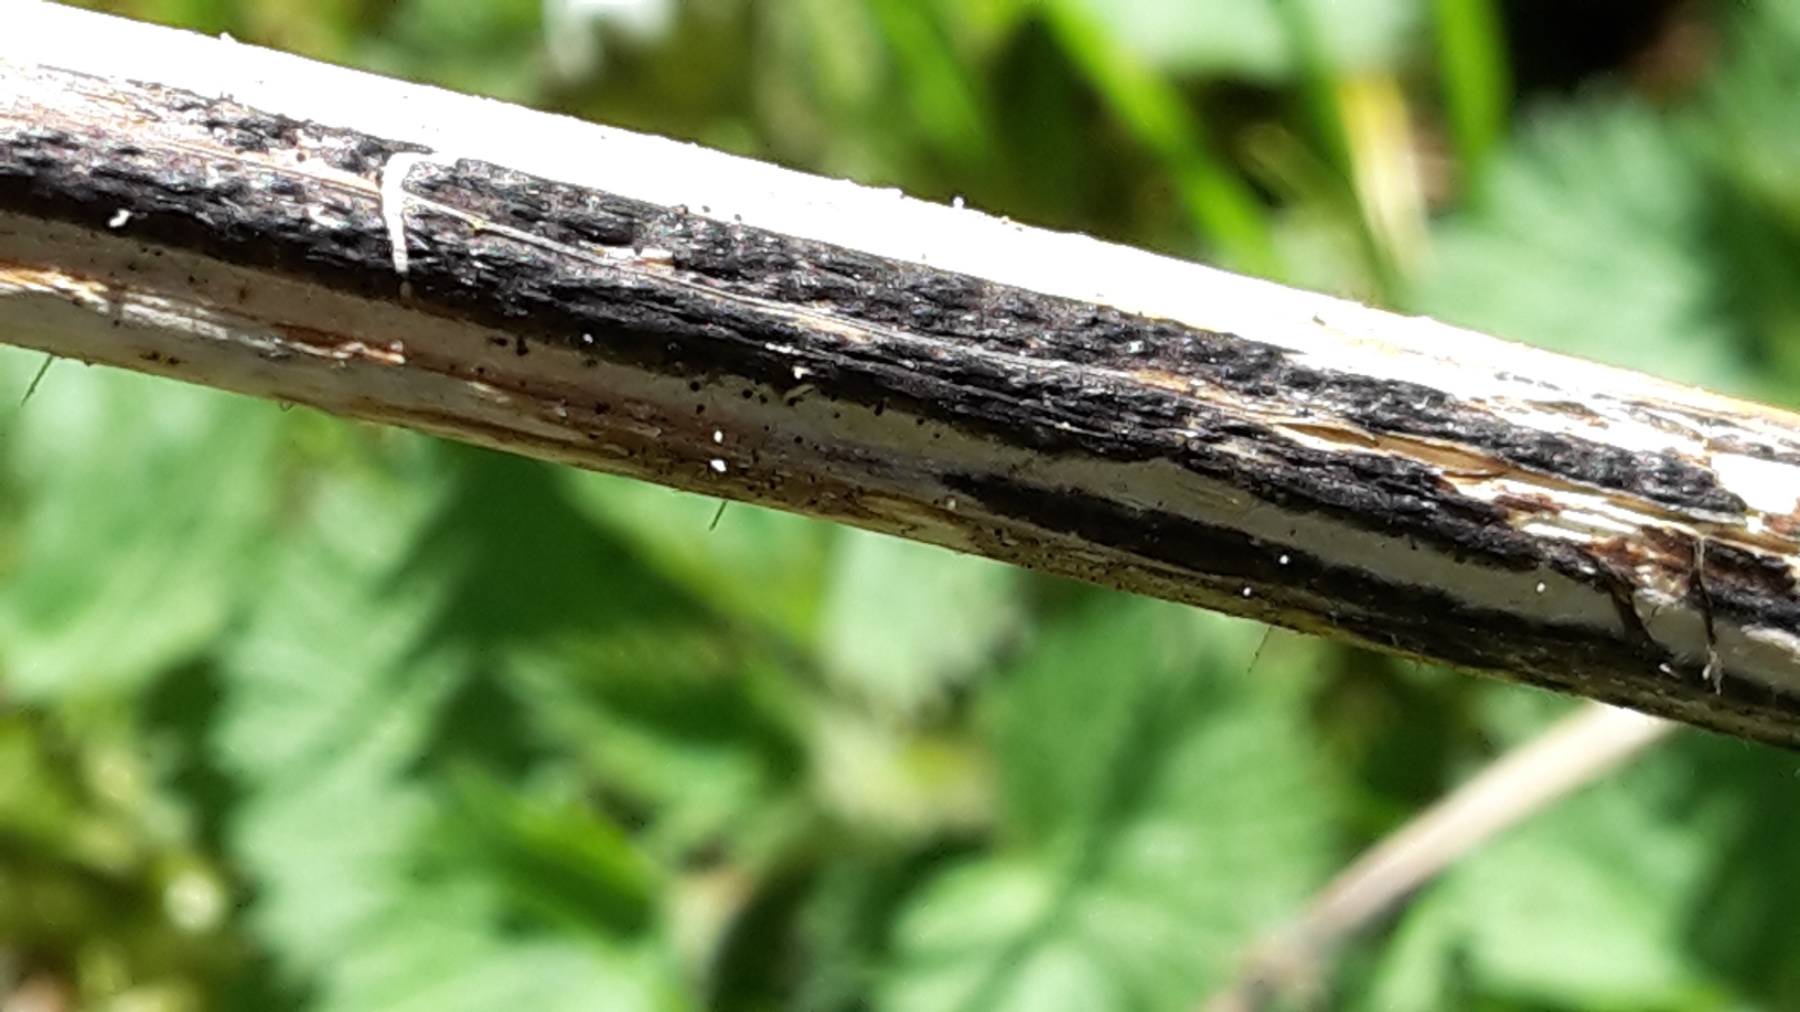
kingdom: Fungi
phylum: Ascomycota
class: Sordariomycetes
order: Diaporthales
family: Diaporthaceae
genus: Diaporthopsis
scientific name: Diaporthopsis urticae
